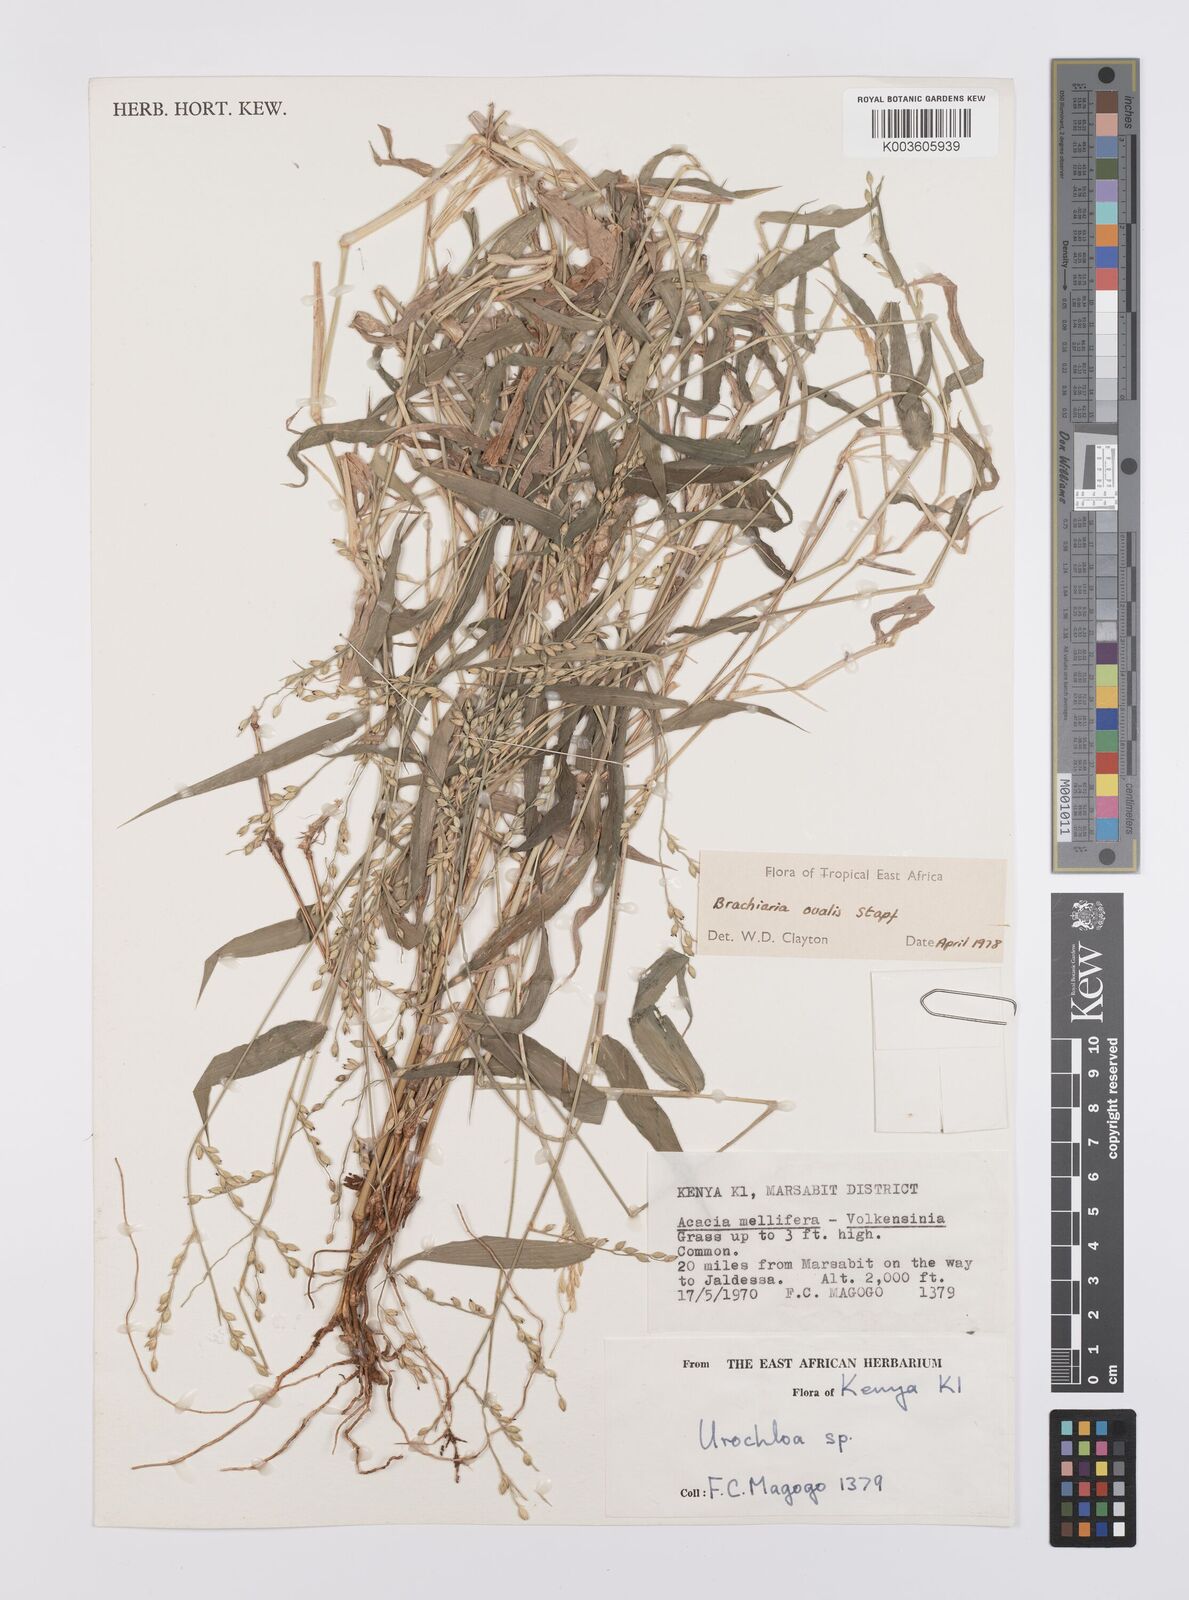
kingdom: Plantae
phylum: Tracheophyta
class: Liliopsida
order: Poales
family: Poaceae
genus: Urochloa
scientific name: Urochloa ovalis
